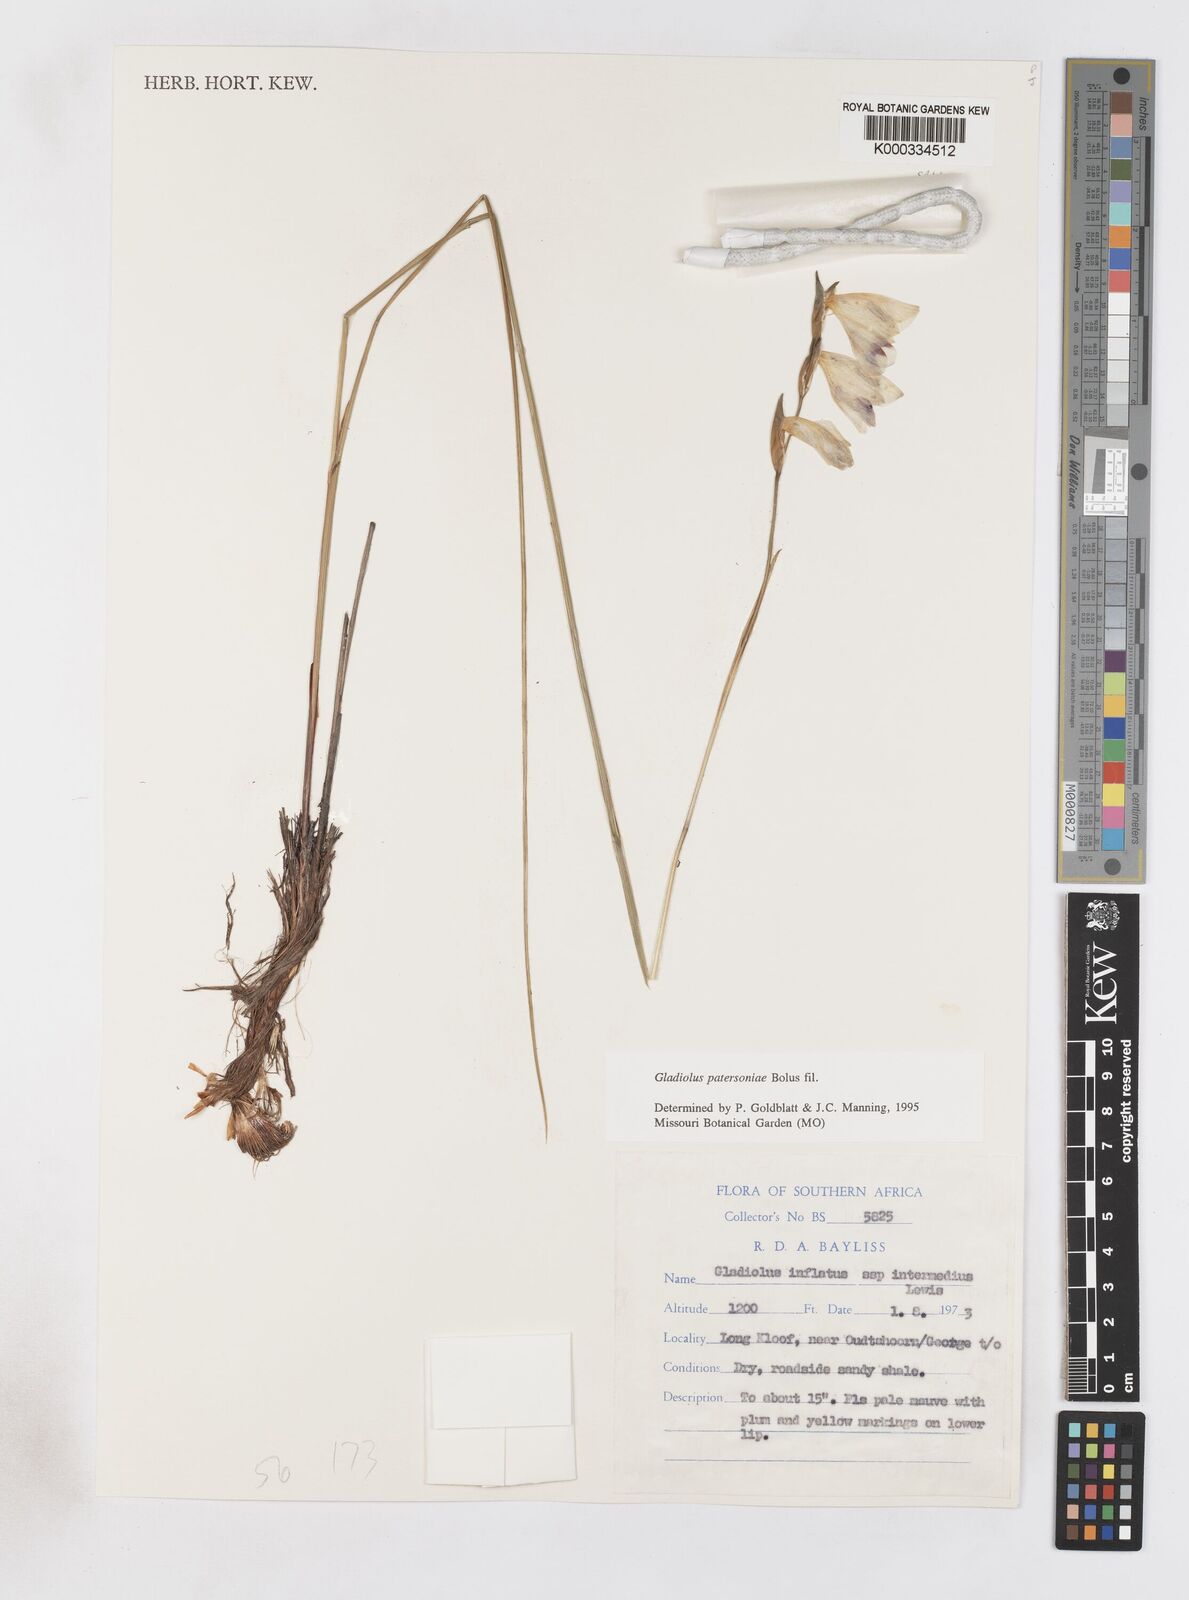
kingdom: Plantae
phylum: Tracheophyta
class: Liliopsida
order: Asparagales
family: Iridaceae
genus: Gladiolus
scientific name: Gladiolus patersoniae
